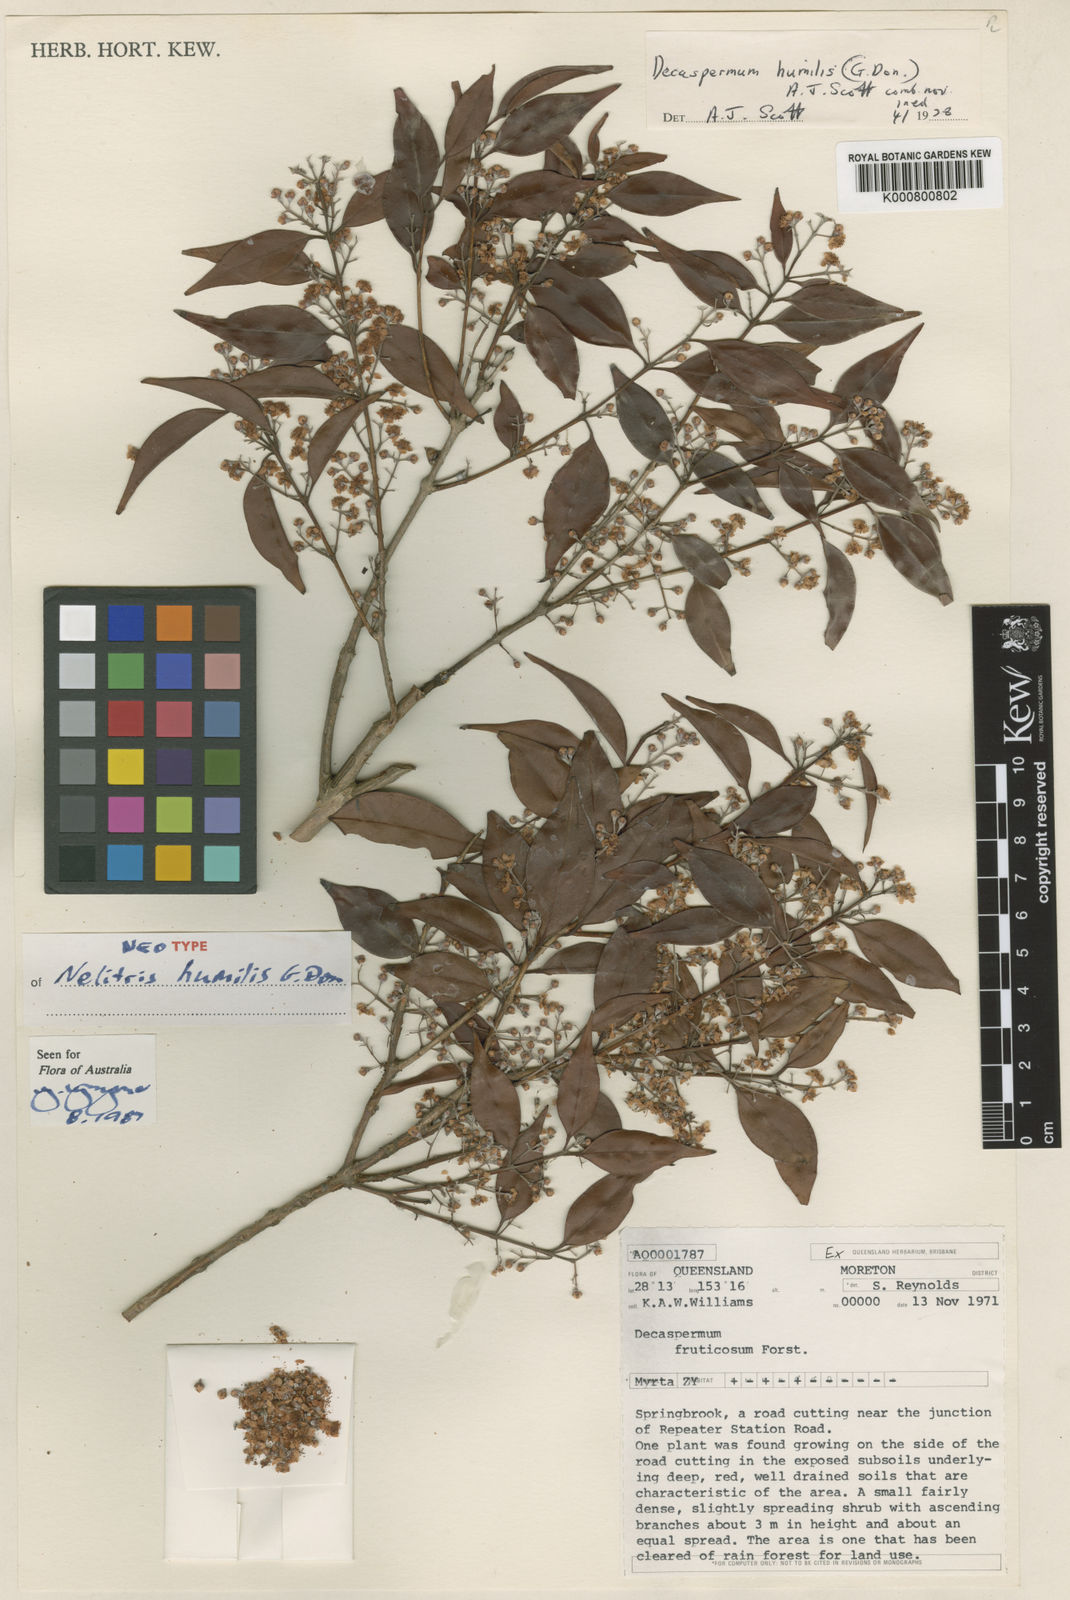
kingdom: Plantae
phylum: Tracheophyta
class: Magnoliopsida
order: Myrtales
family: Myrtaceae
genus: Decaspermum
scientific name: Decaspermum humile
